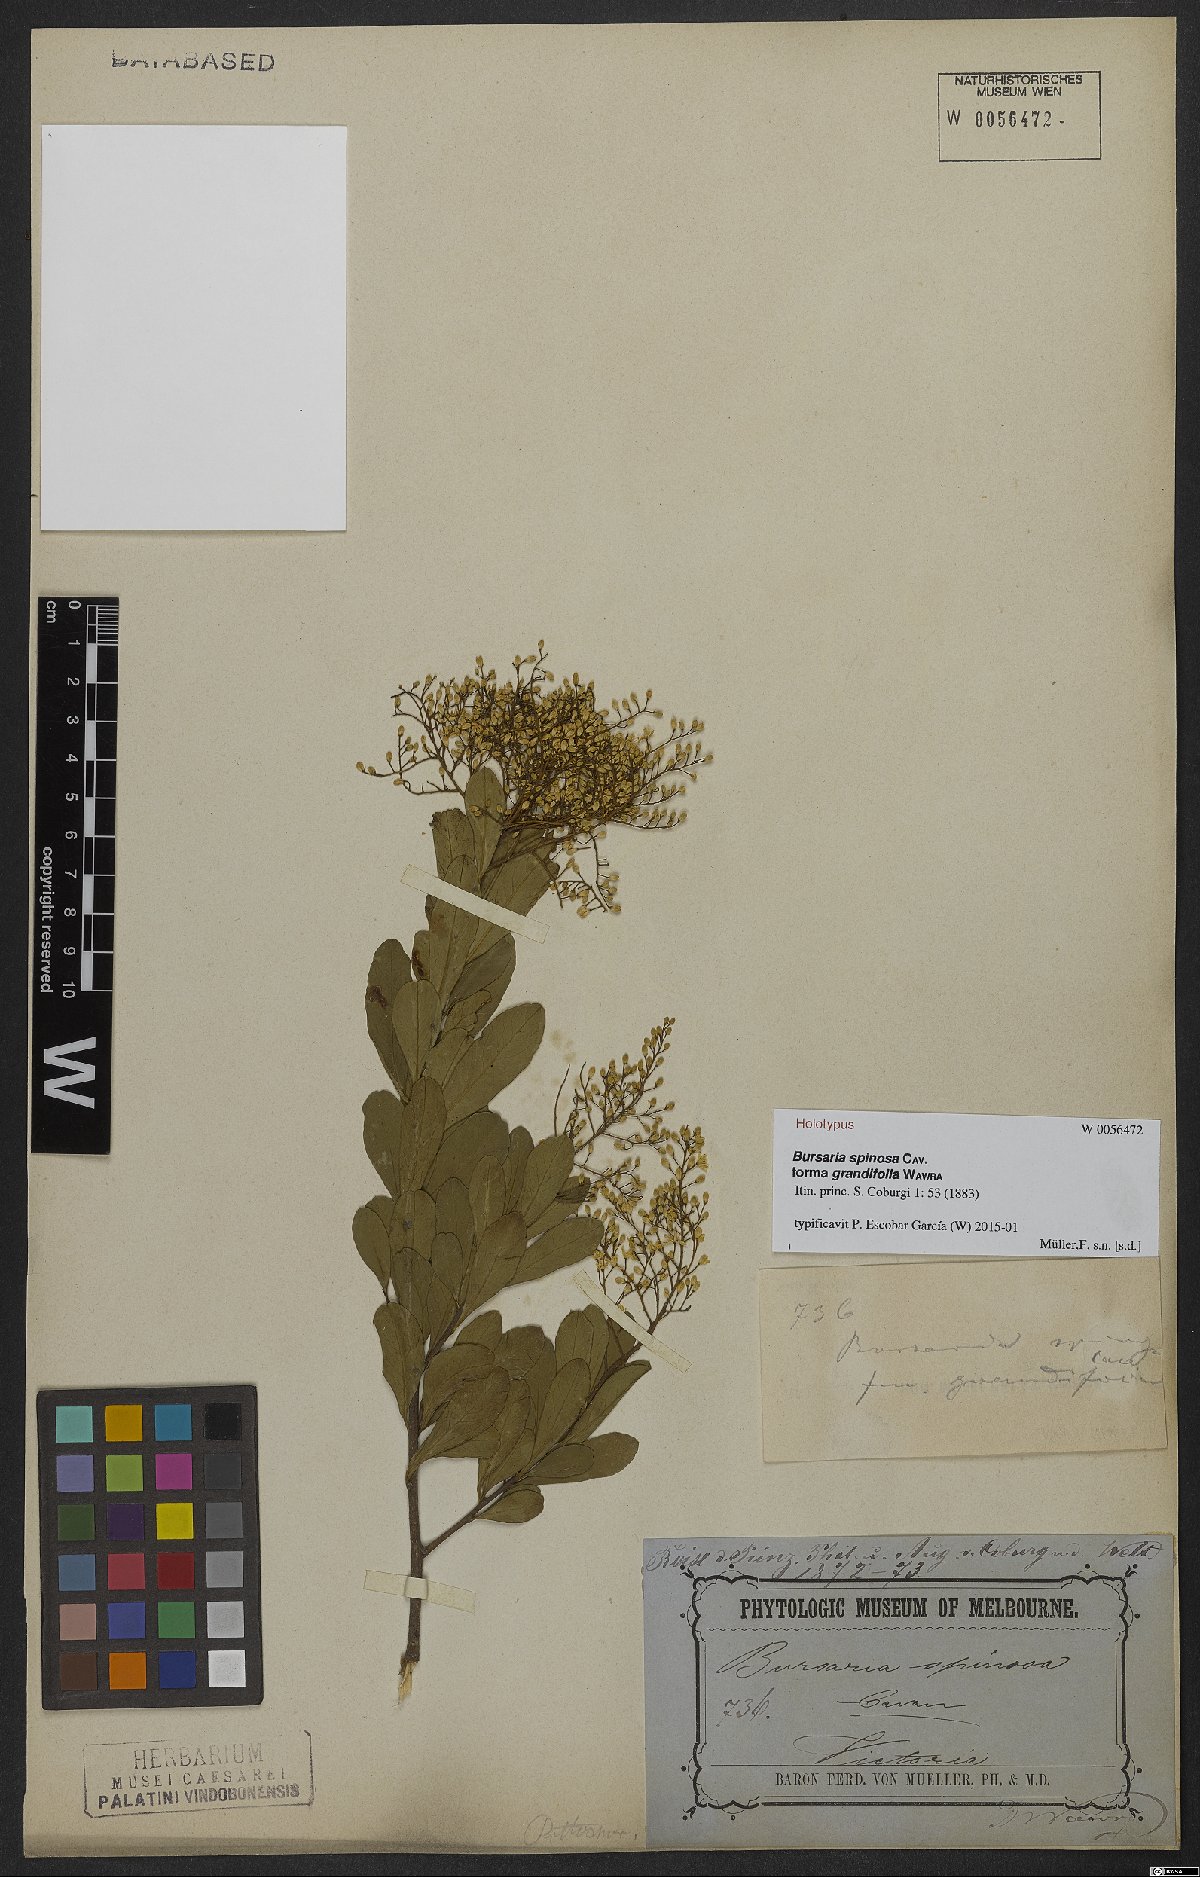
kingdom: Plantae
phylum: Tracheophyta
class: Magnoliopsida
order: Apiales
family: Pittosporaceae
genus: Bursaria
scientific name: Bursaria spinosa
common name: Australian blackthorn
